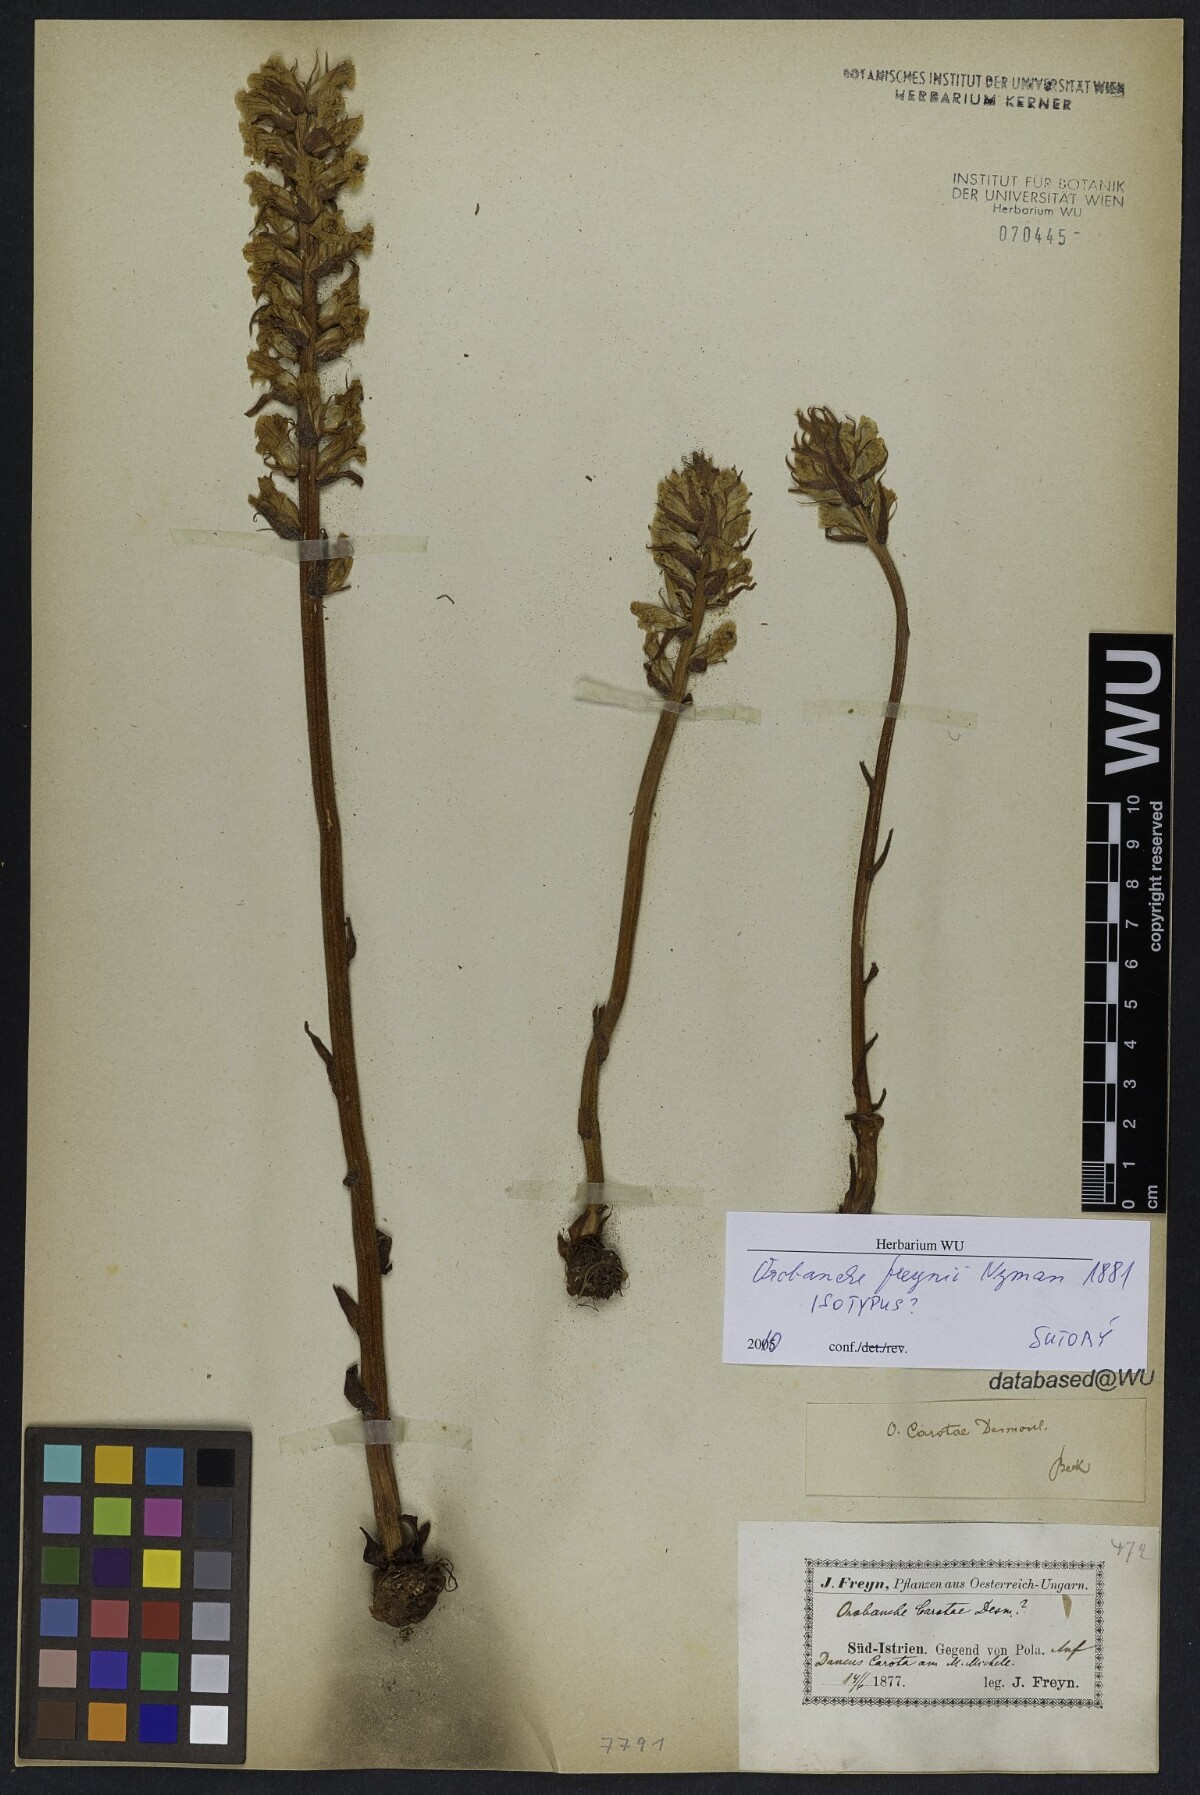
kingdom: Plantae
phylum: Tracheophyta
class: Magnoliopsida
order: Lamiales
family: Orobanchaceae
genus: Orobanche
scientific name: Orobanche picridis
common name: Oxtongue broomrape
